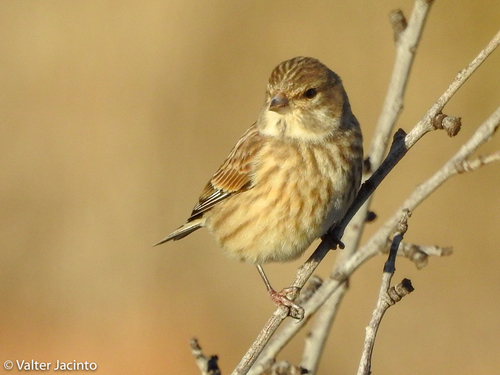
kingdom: Animalia
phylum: Chordata
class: Aves
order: Passeriformes
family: Fringillidae
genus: Linaria
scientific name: Linaria cannabina
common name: Common linnet
